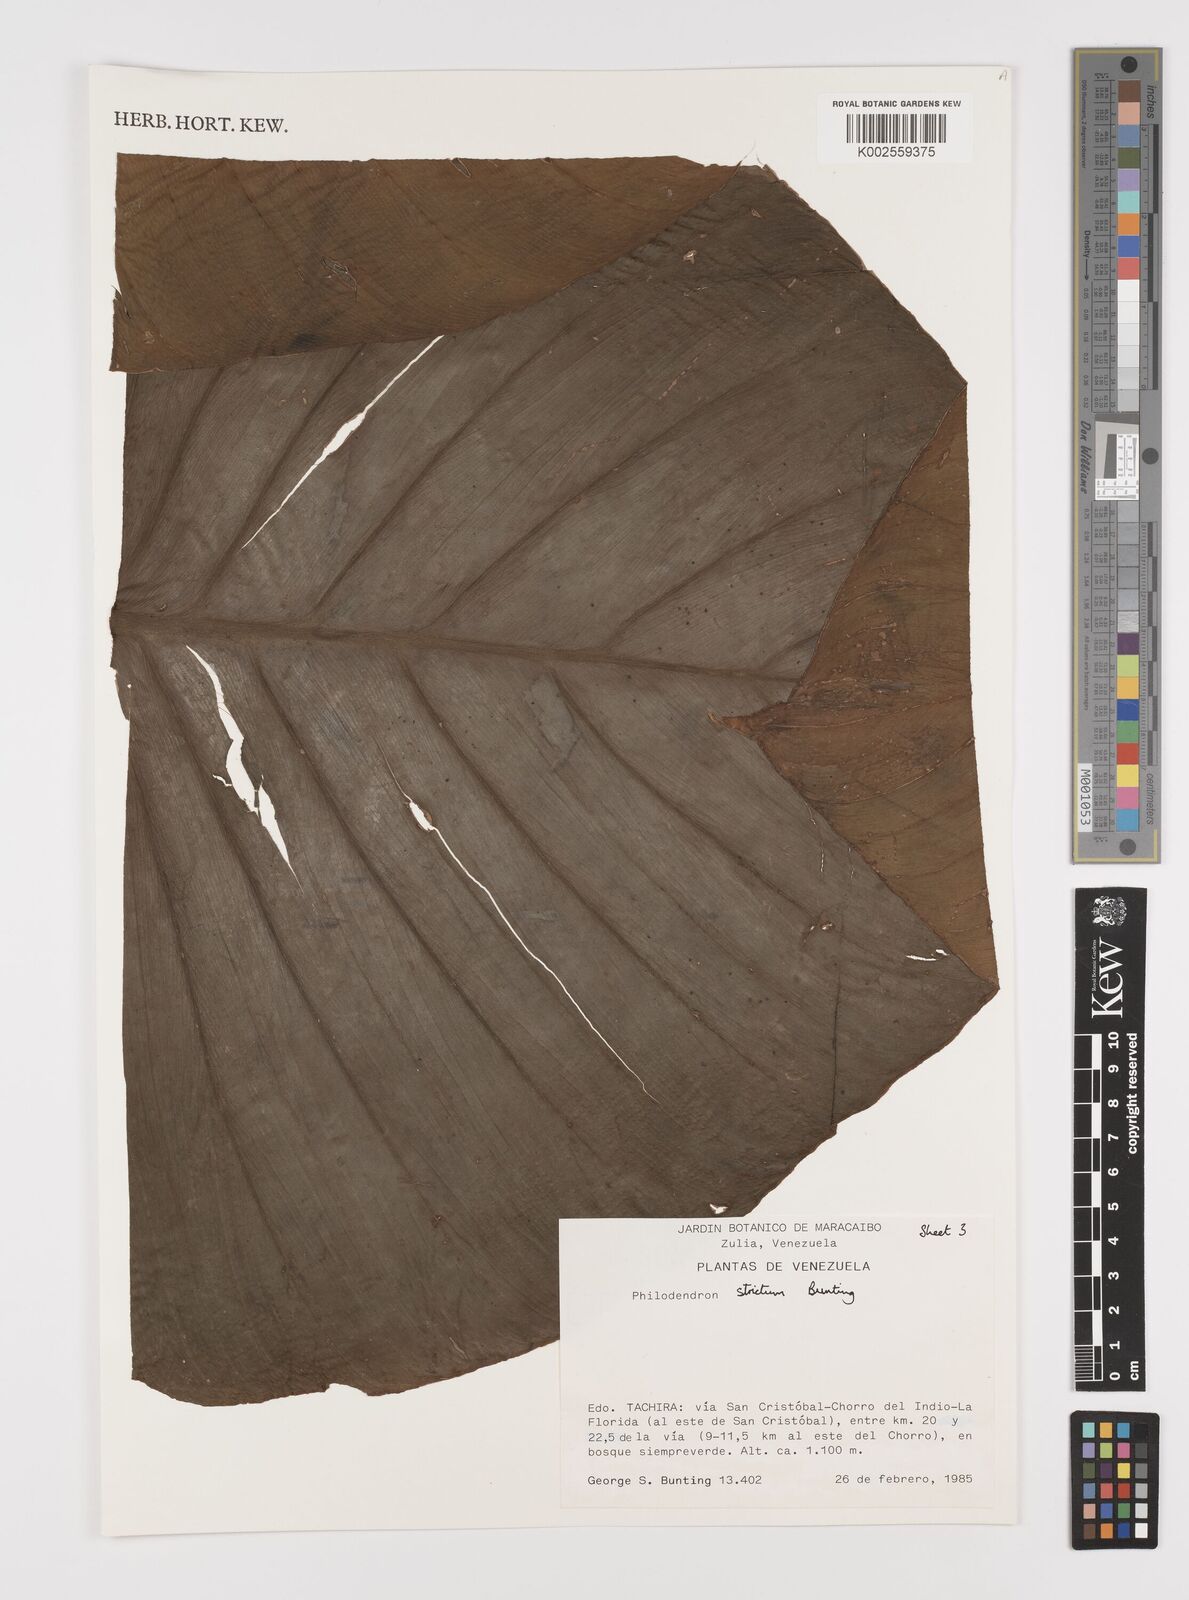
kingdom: Plantae
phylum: Tracheophyta
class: Liliopsida
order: Alismatales
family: Araceae
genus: Philodendron
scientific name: Philodendron strictum
